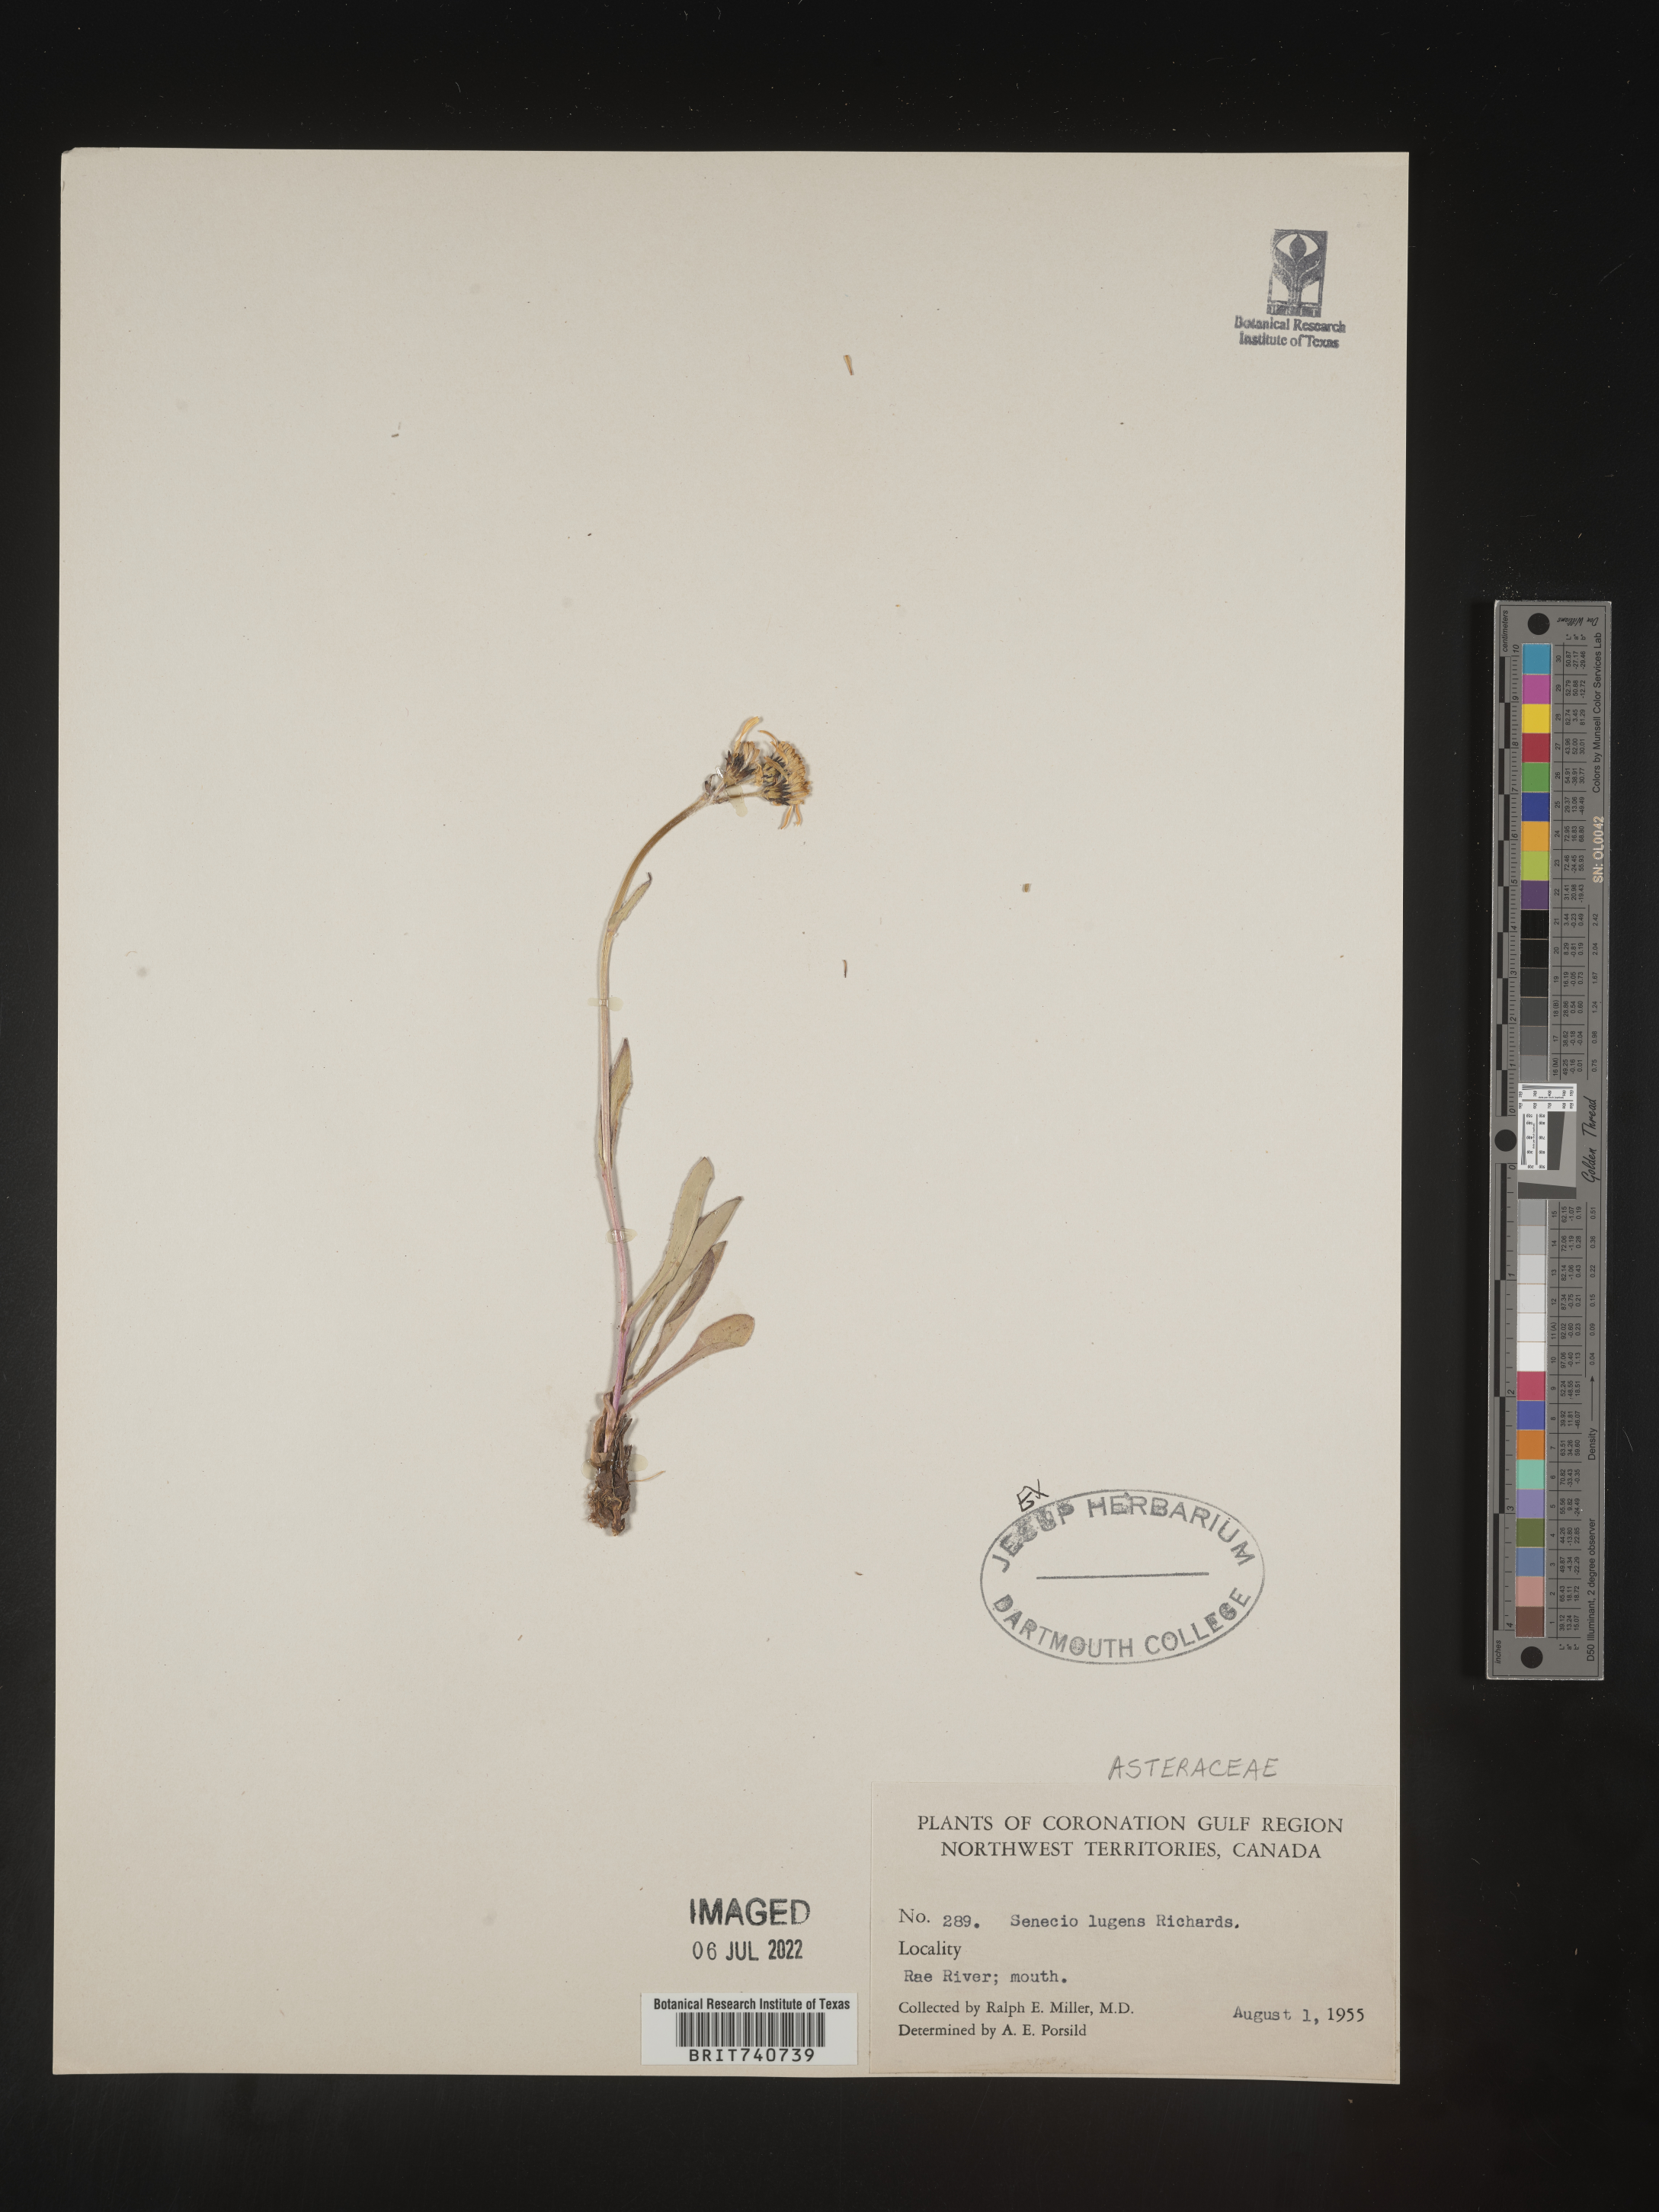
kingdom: Plantae
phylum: Tracheophyta
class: Magnoliopsida
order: Asterales
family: Asteraceae
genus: Senecio
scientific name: Senecio lugens
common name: Black-tip groundsel
